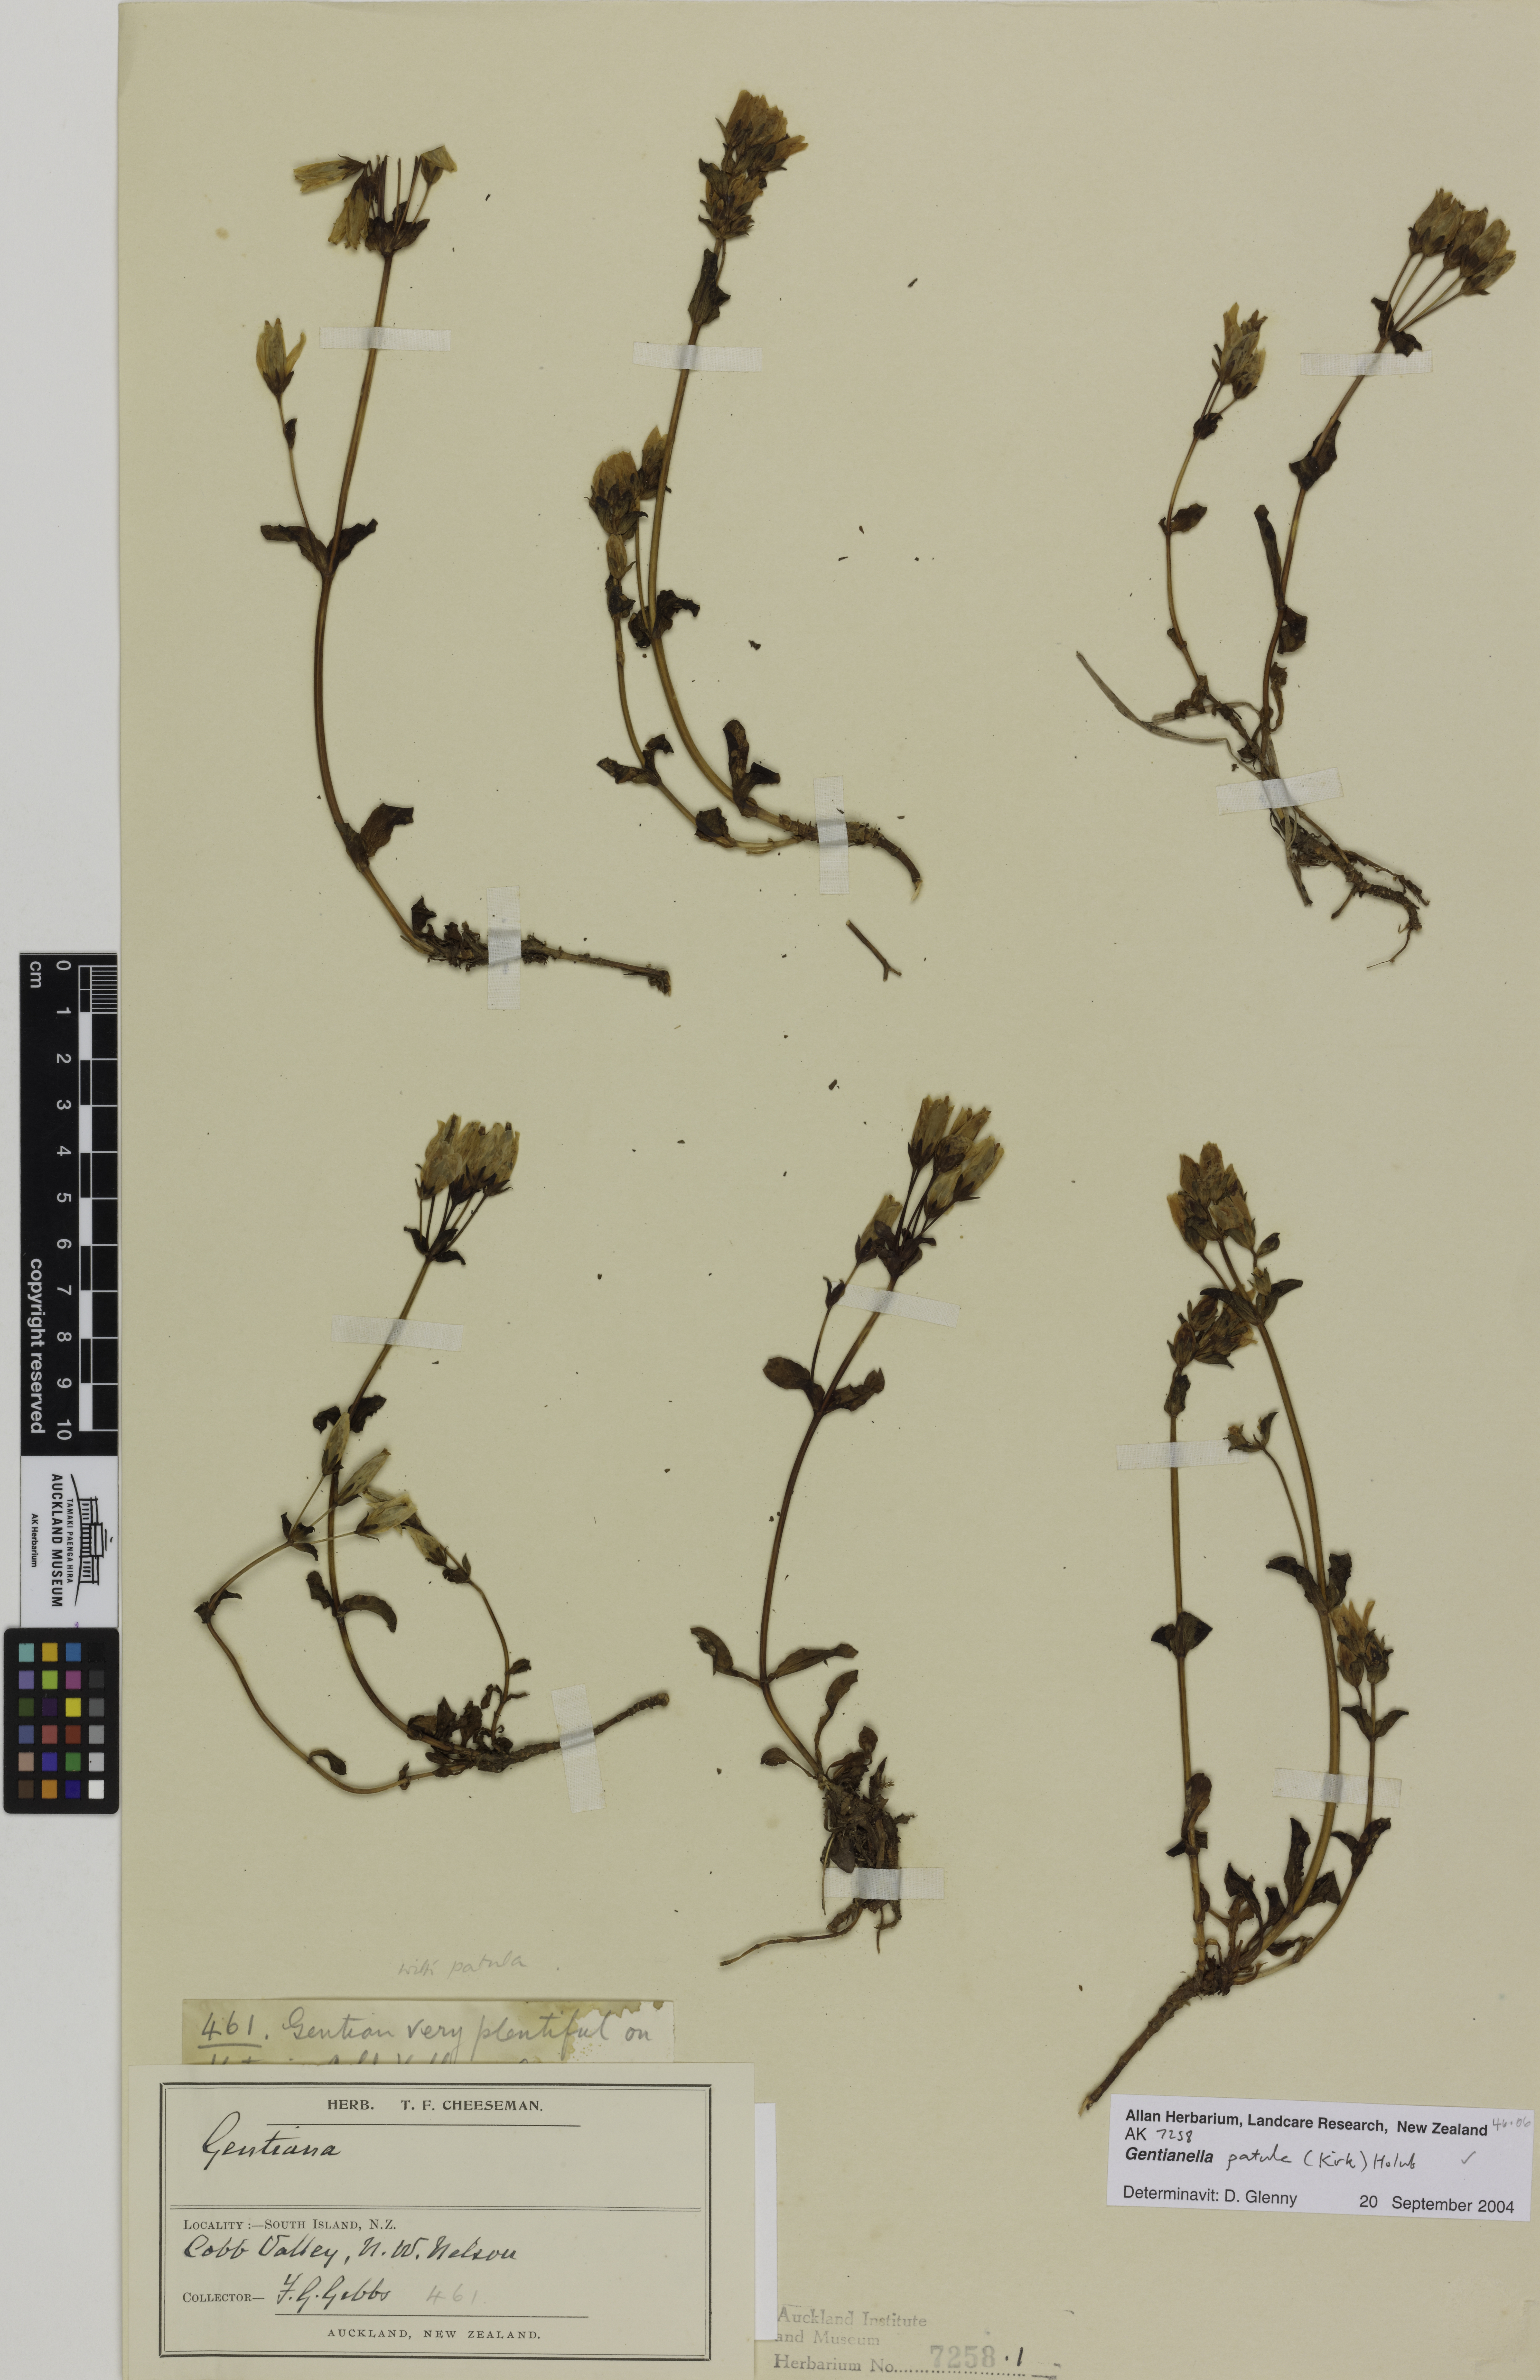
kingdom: Plantae
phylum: Tracheophyta
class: Magnoliopsida
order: Gentianales
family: Gentianaceae
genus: Gentianella
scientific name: Gentianella patula
